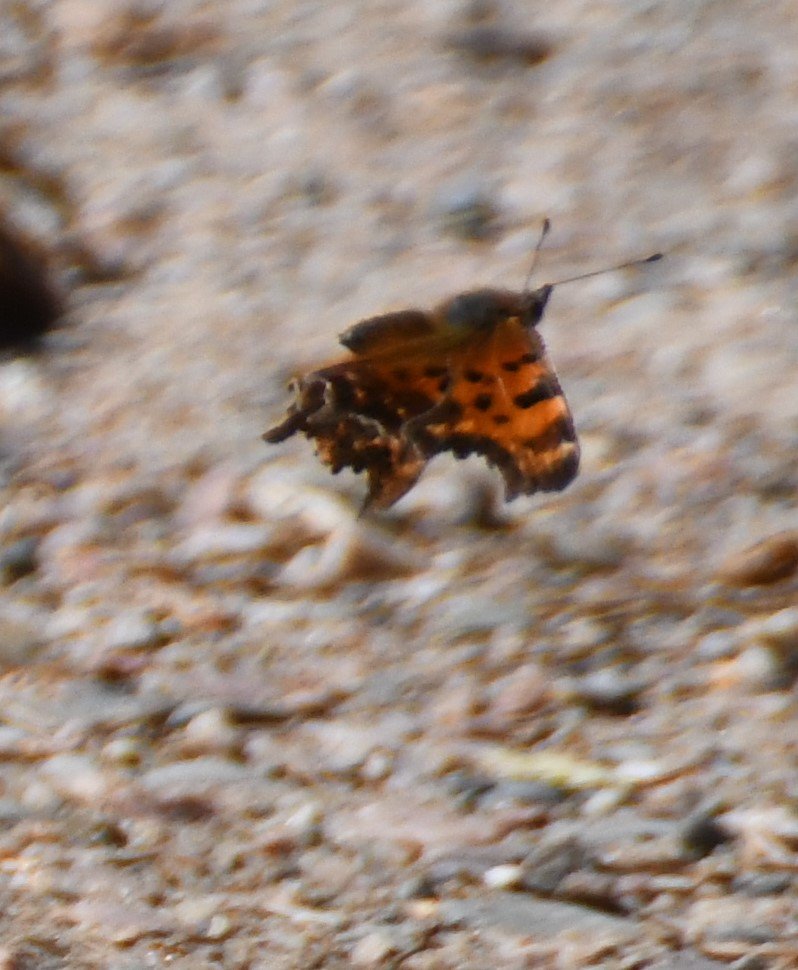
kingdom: Animalia
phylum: Arthropoda
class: Insecta
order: Lepidoptera
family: Nymphalidae
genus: Polygonia
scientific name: Polygonia faunus
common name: Green Comma
